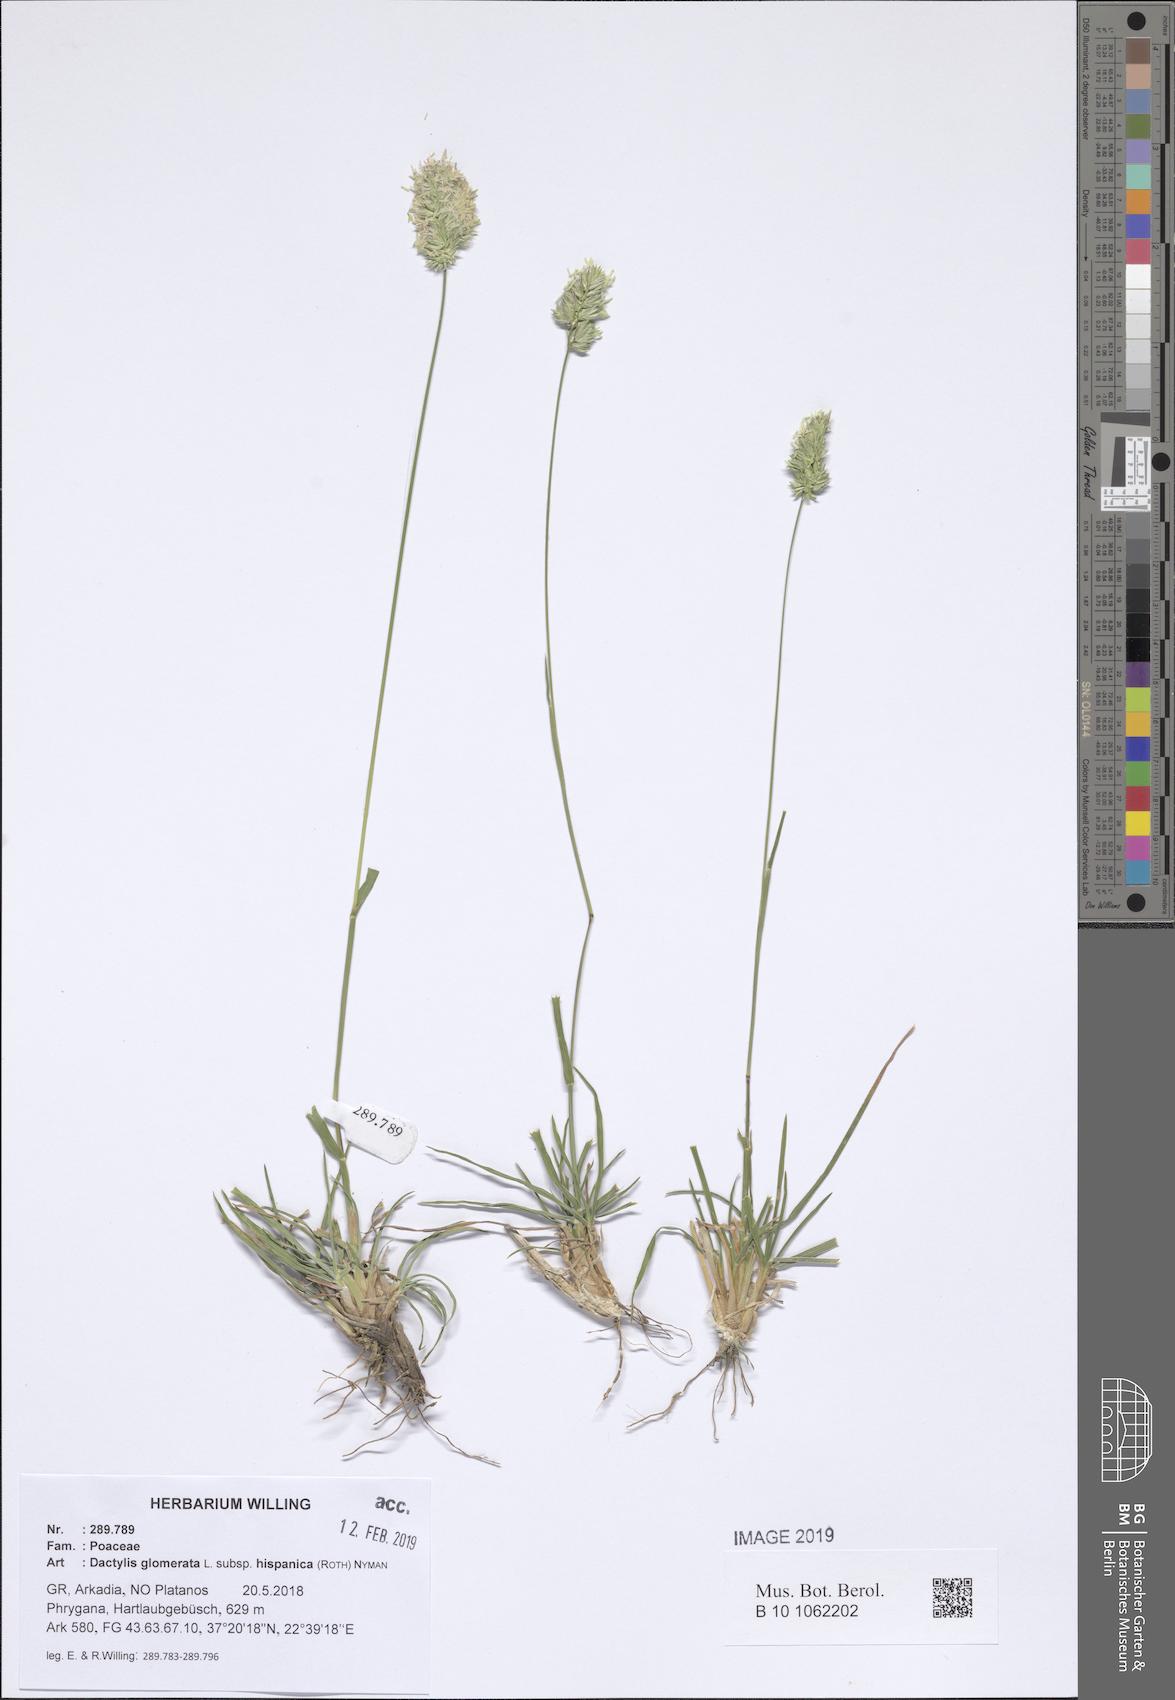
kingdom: Plantae
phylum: Tracheophyta
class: Liliopsida
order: Poales
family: Poaceae
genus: Dactylis
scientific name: Dactylis glomerata
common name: Orchardgrass
